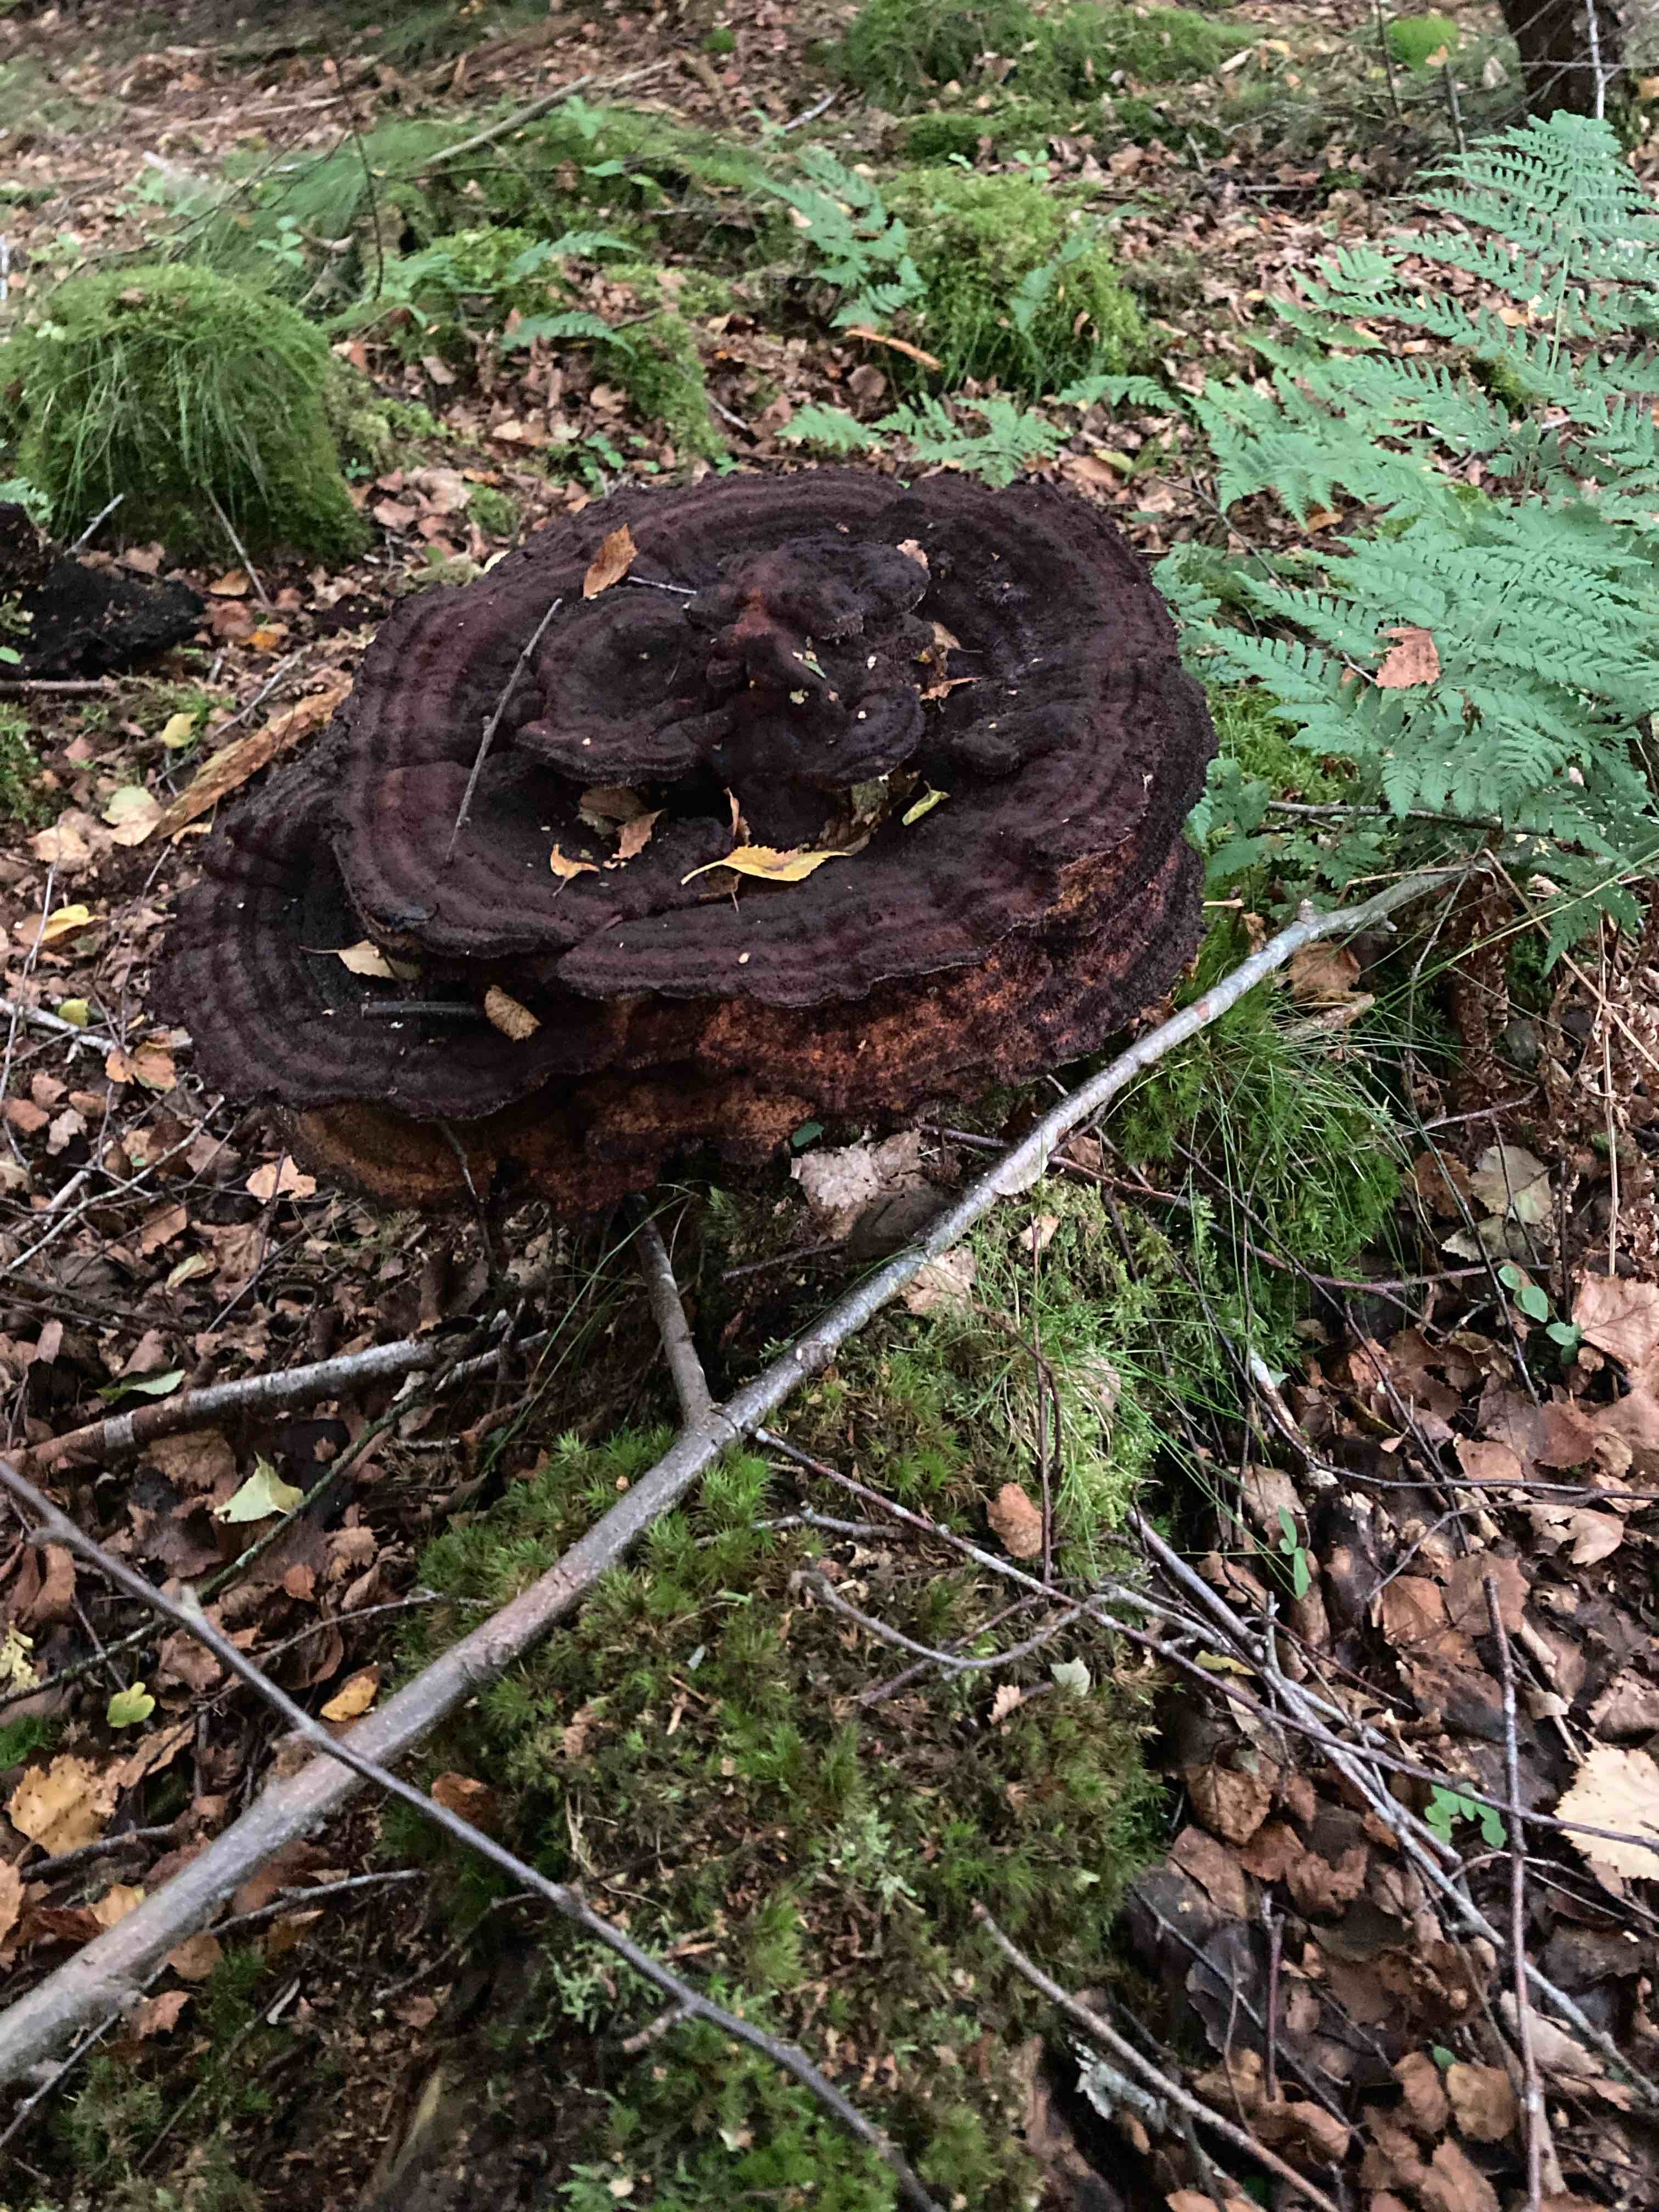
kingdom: Fungi
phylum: Basidiomycota
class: Agaricomycetes
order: Polyporales
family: Laetiporaceae
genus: Phaeolus
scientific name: Phaeolus schweinitzii
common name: brunporesvamp
